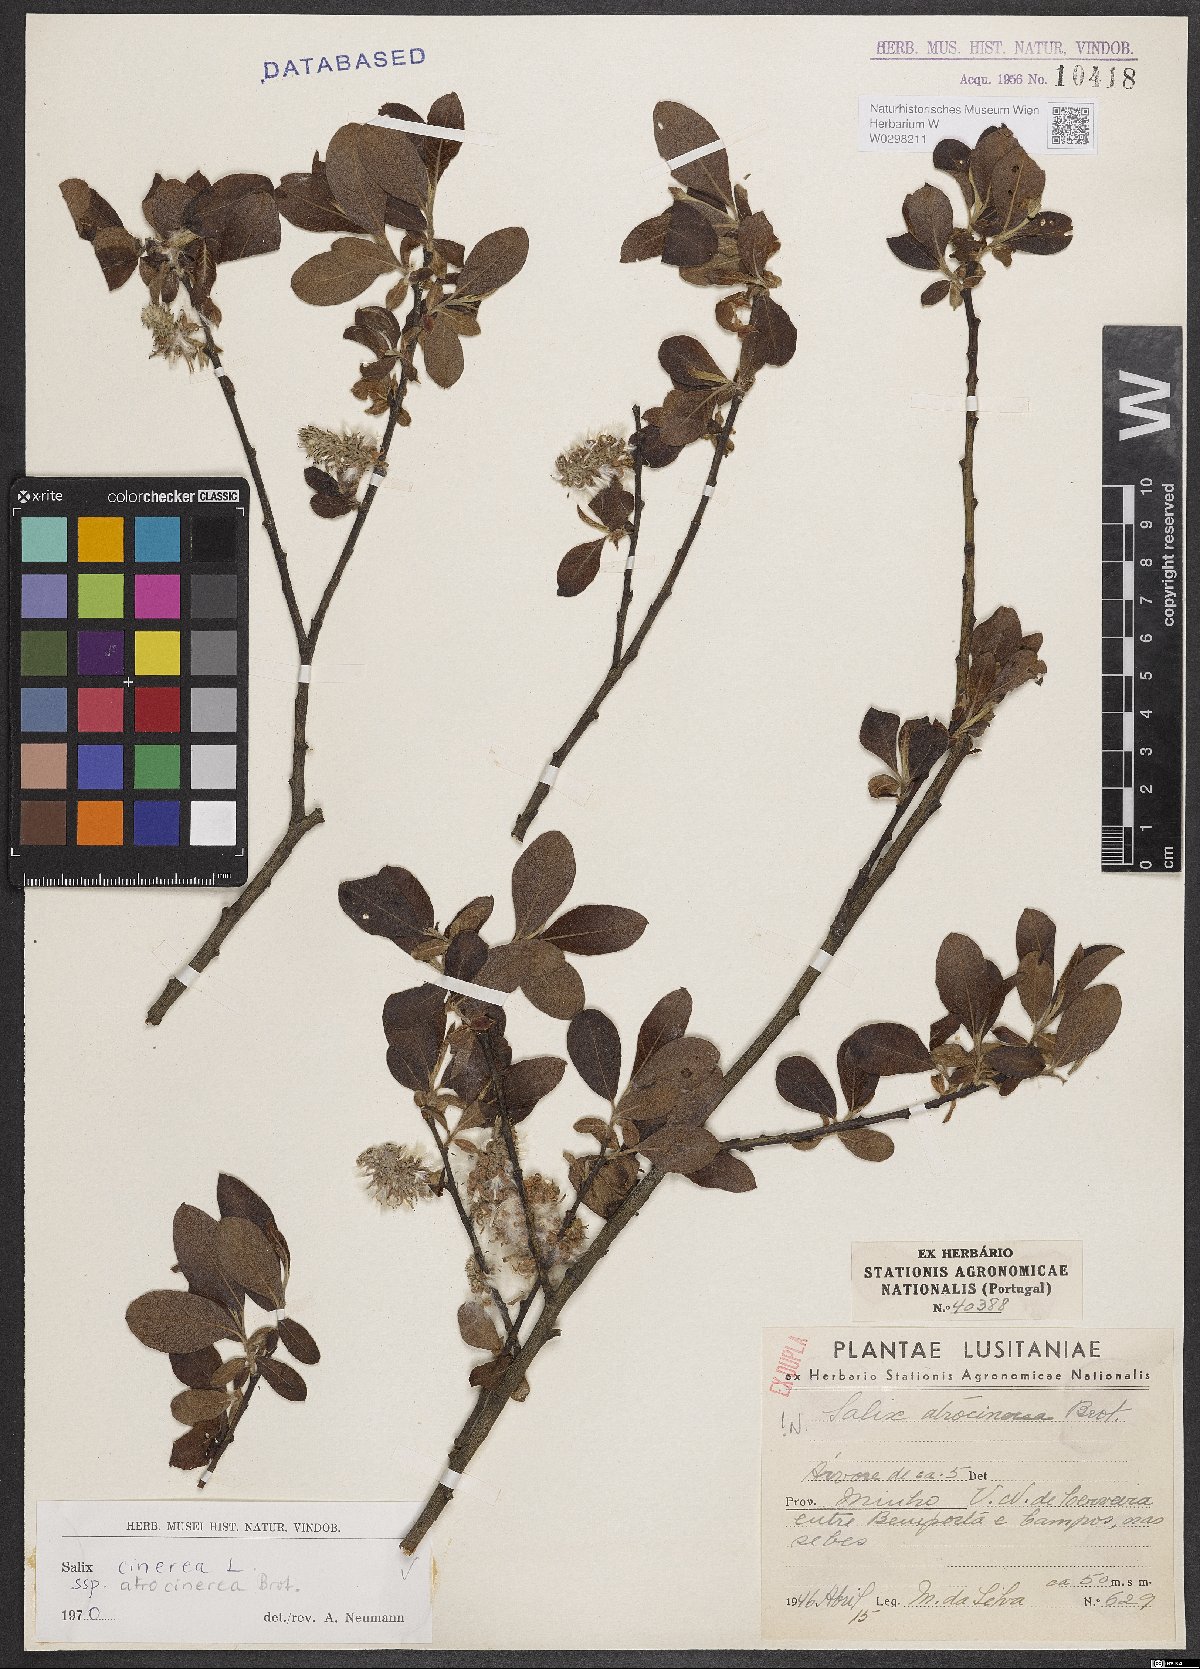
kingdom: Plantae
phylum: Tracheophyta
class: Magnoliopsida
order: Malpighiales
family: Salicaceae
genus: Salix
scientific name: Salix atrocinerea
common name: Rusty willow
